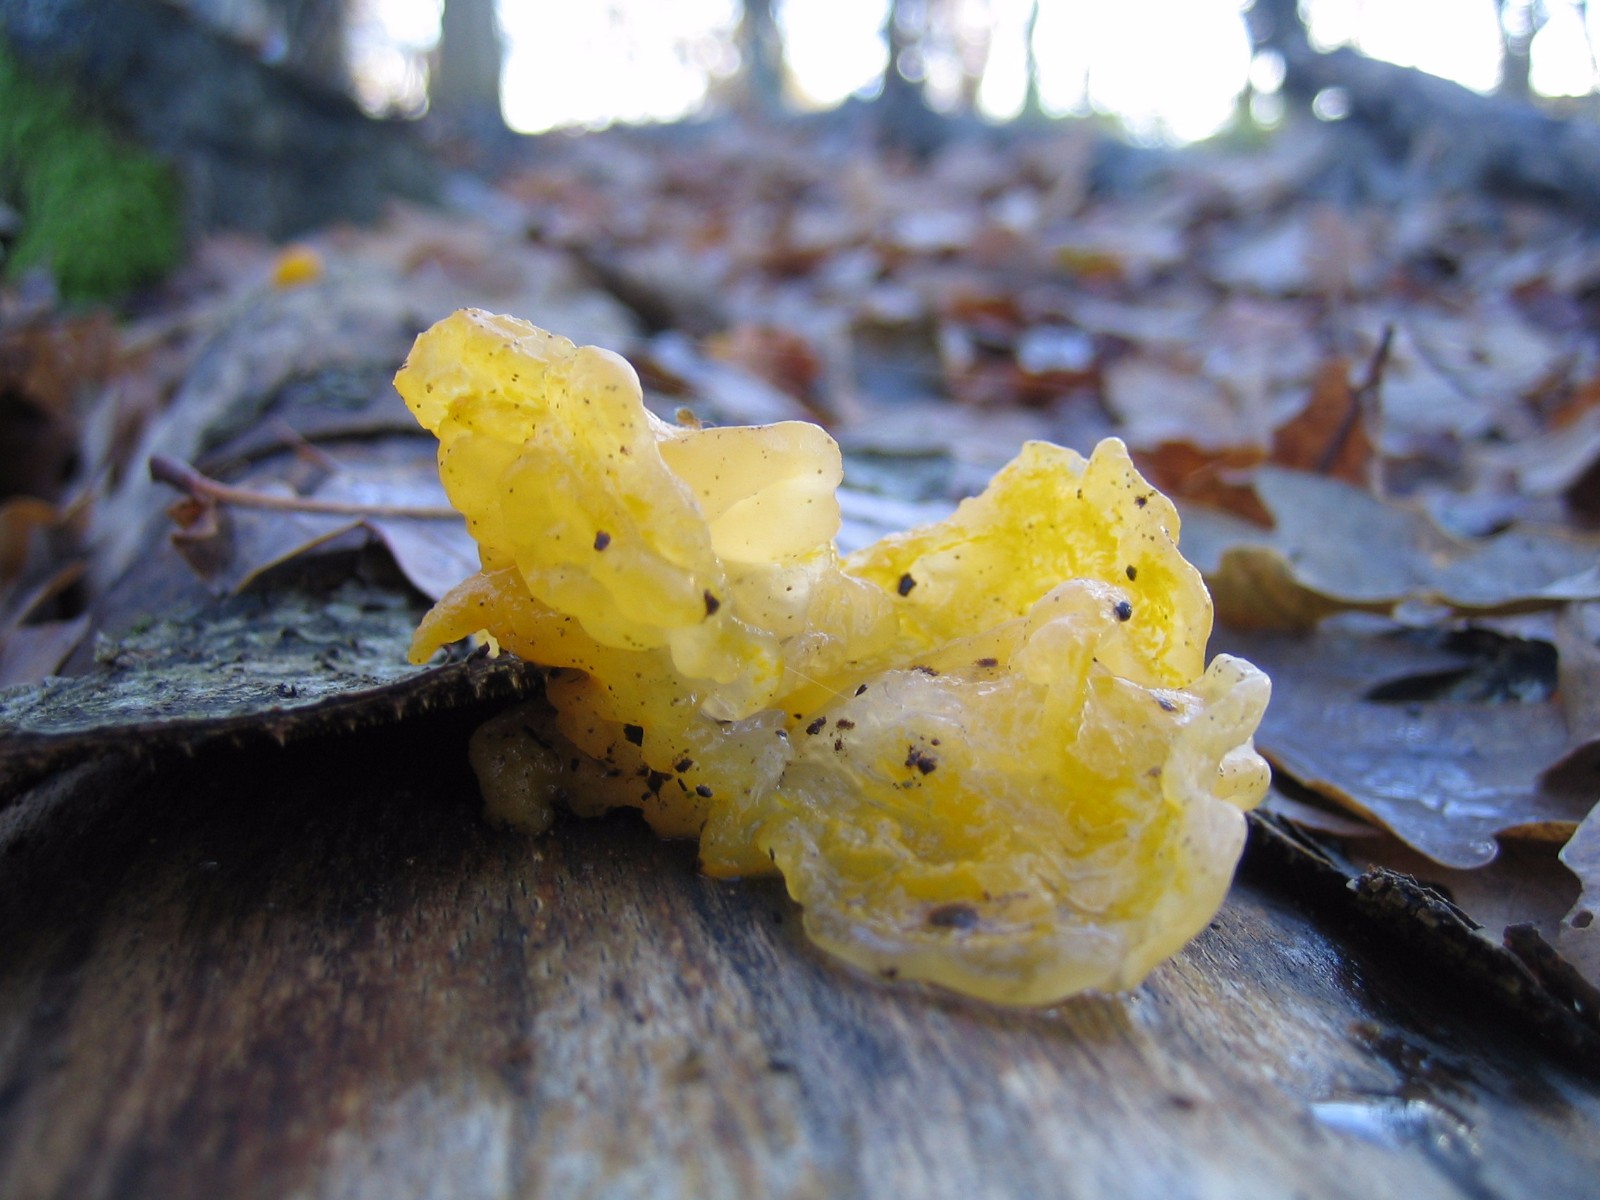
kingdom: Fungi
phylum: Basidiomycota
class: Tremellomycetes
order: Tremellales
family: Tremellaceae
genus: Tremella
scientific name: Tremella mesenterica
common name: gul bævresvamp
